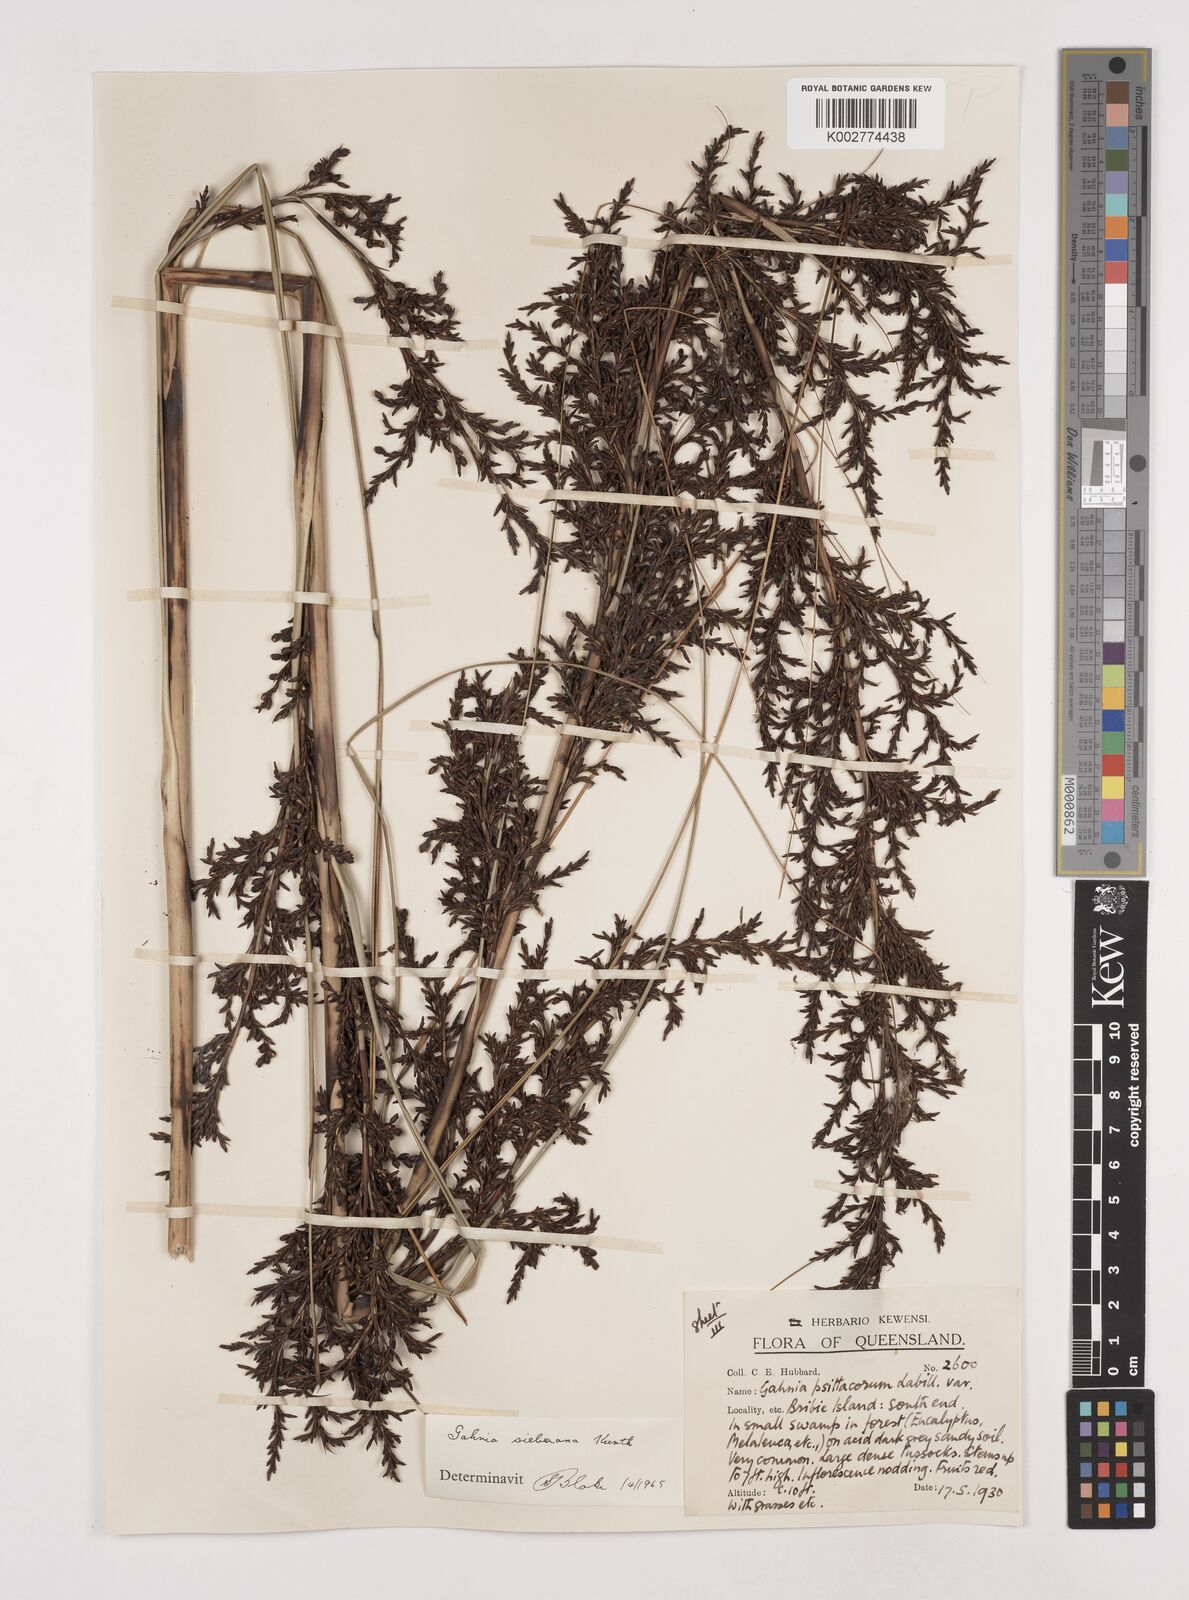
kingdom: Plantae
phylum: Tracheophyta
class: Liliopsida
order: Poales
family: Cyperaceae
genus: Gahnia
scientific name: Gahnia sieberiana
